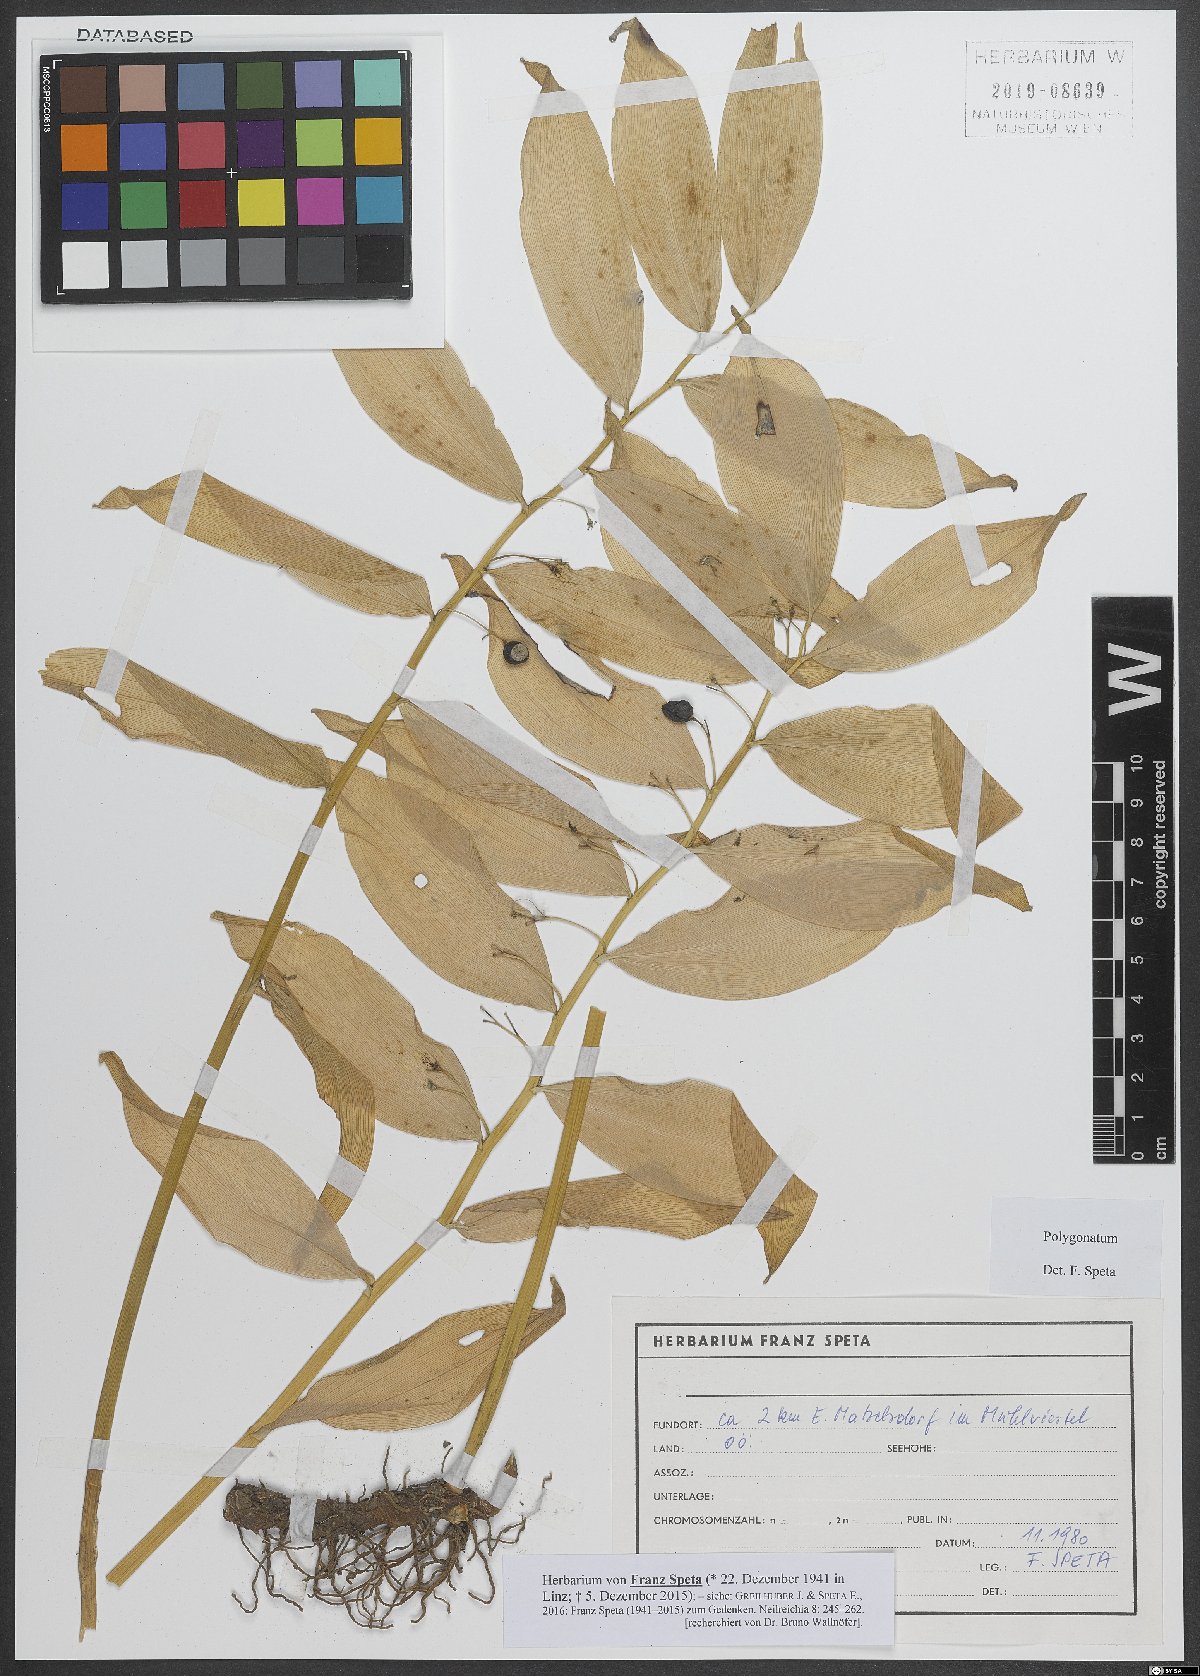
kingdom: Plantae
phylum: Tracheophyta
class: Liliopsida
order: Asparagales
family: Asparagaceae
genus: Polygonatum
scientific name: Polygonatum
